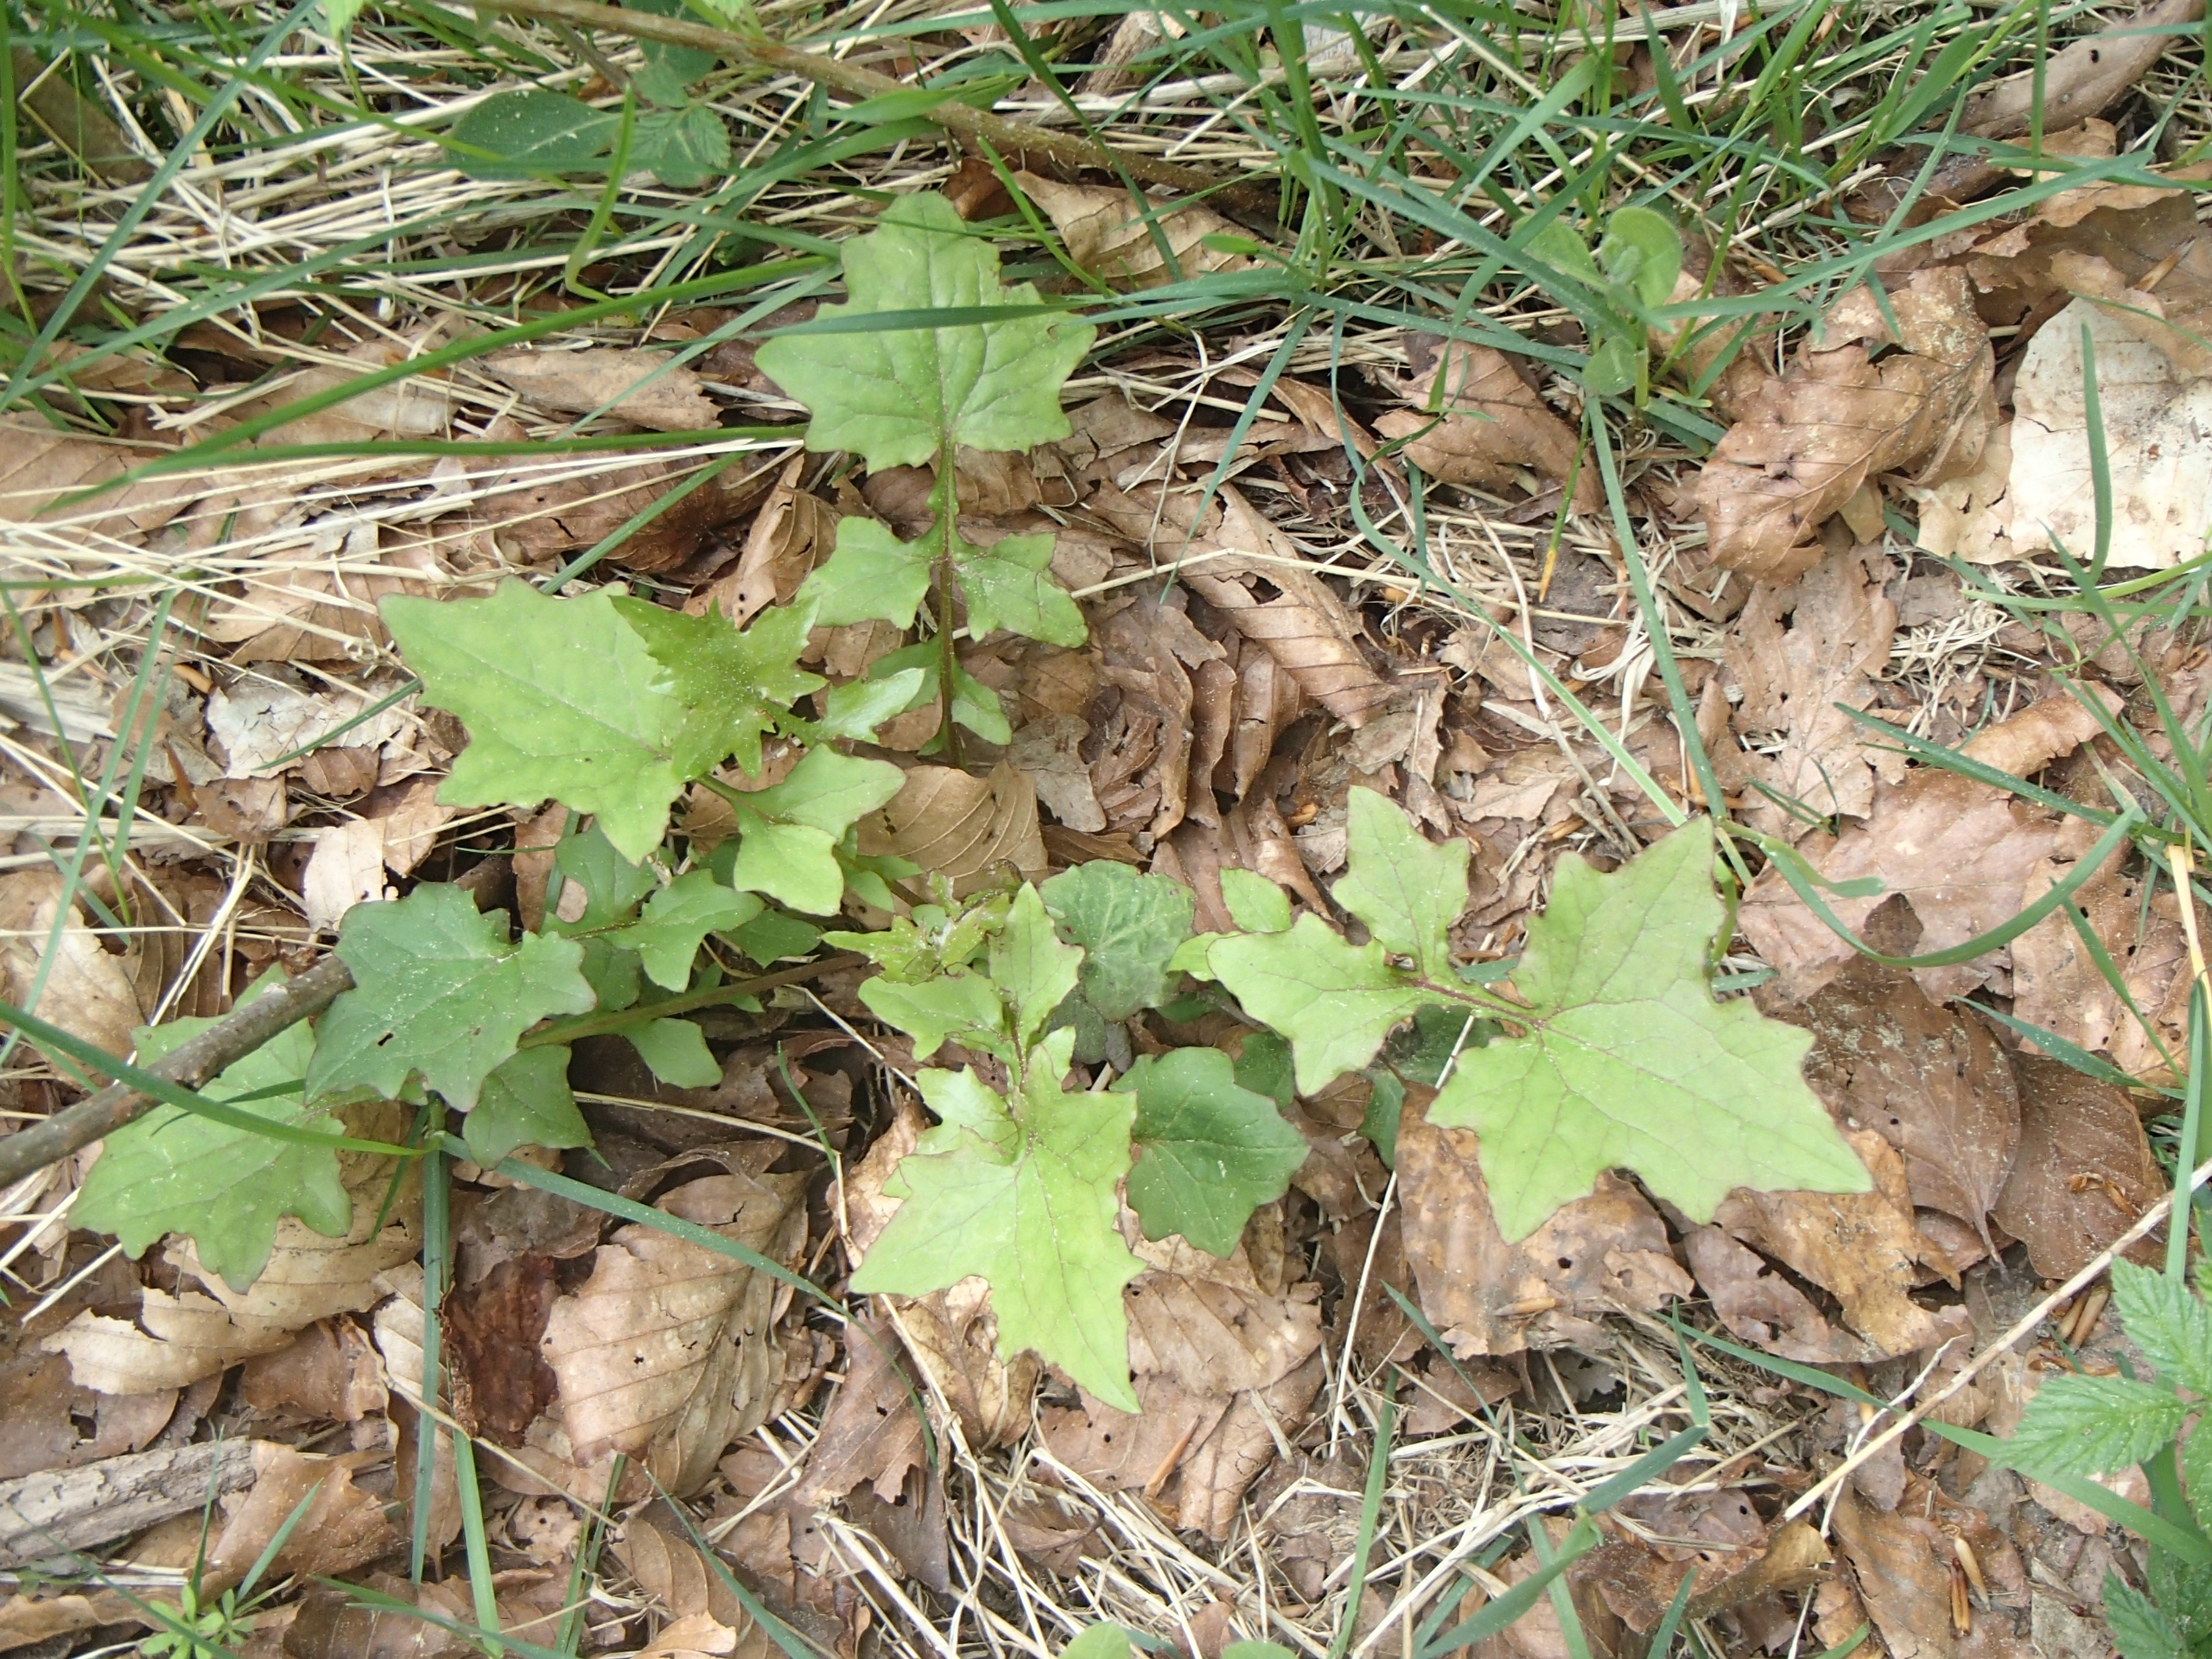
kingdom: Plantae
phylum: Tracheophyta
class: Magnoliopsida
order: Asterales
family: Asteraceae
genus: Mycelis
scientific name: Mycelis muralis
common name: Skov-salat
